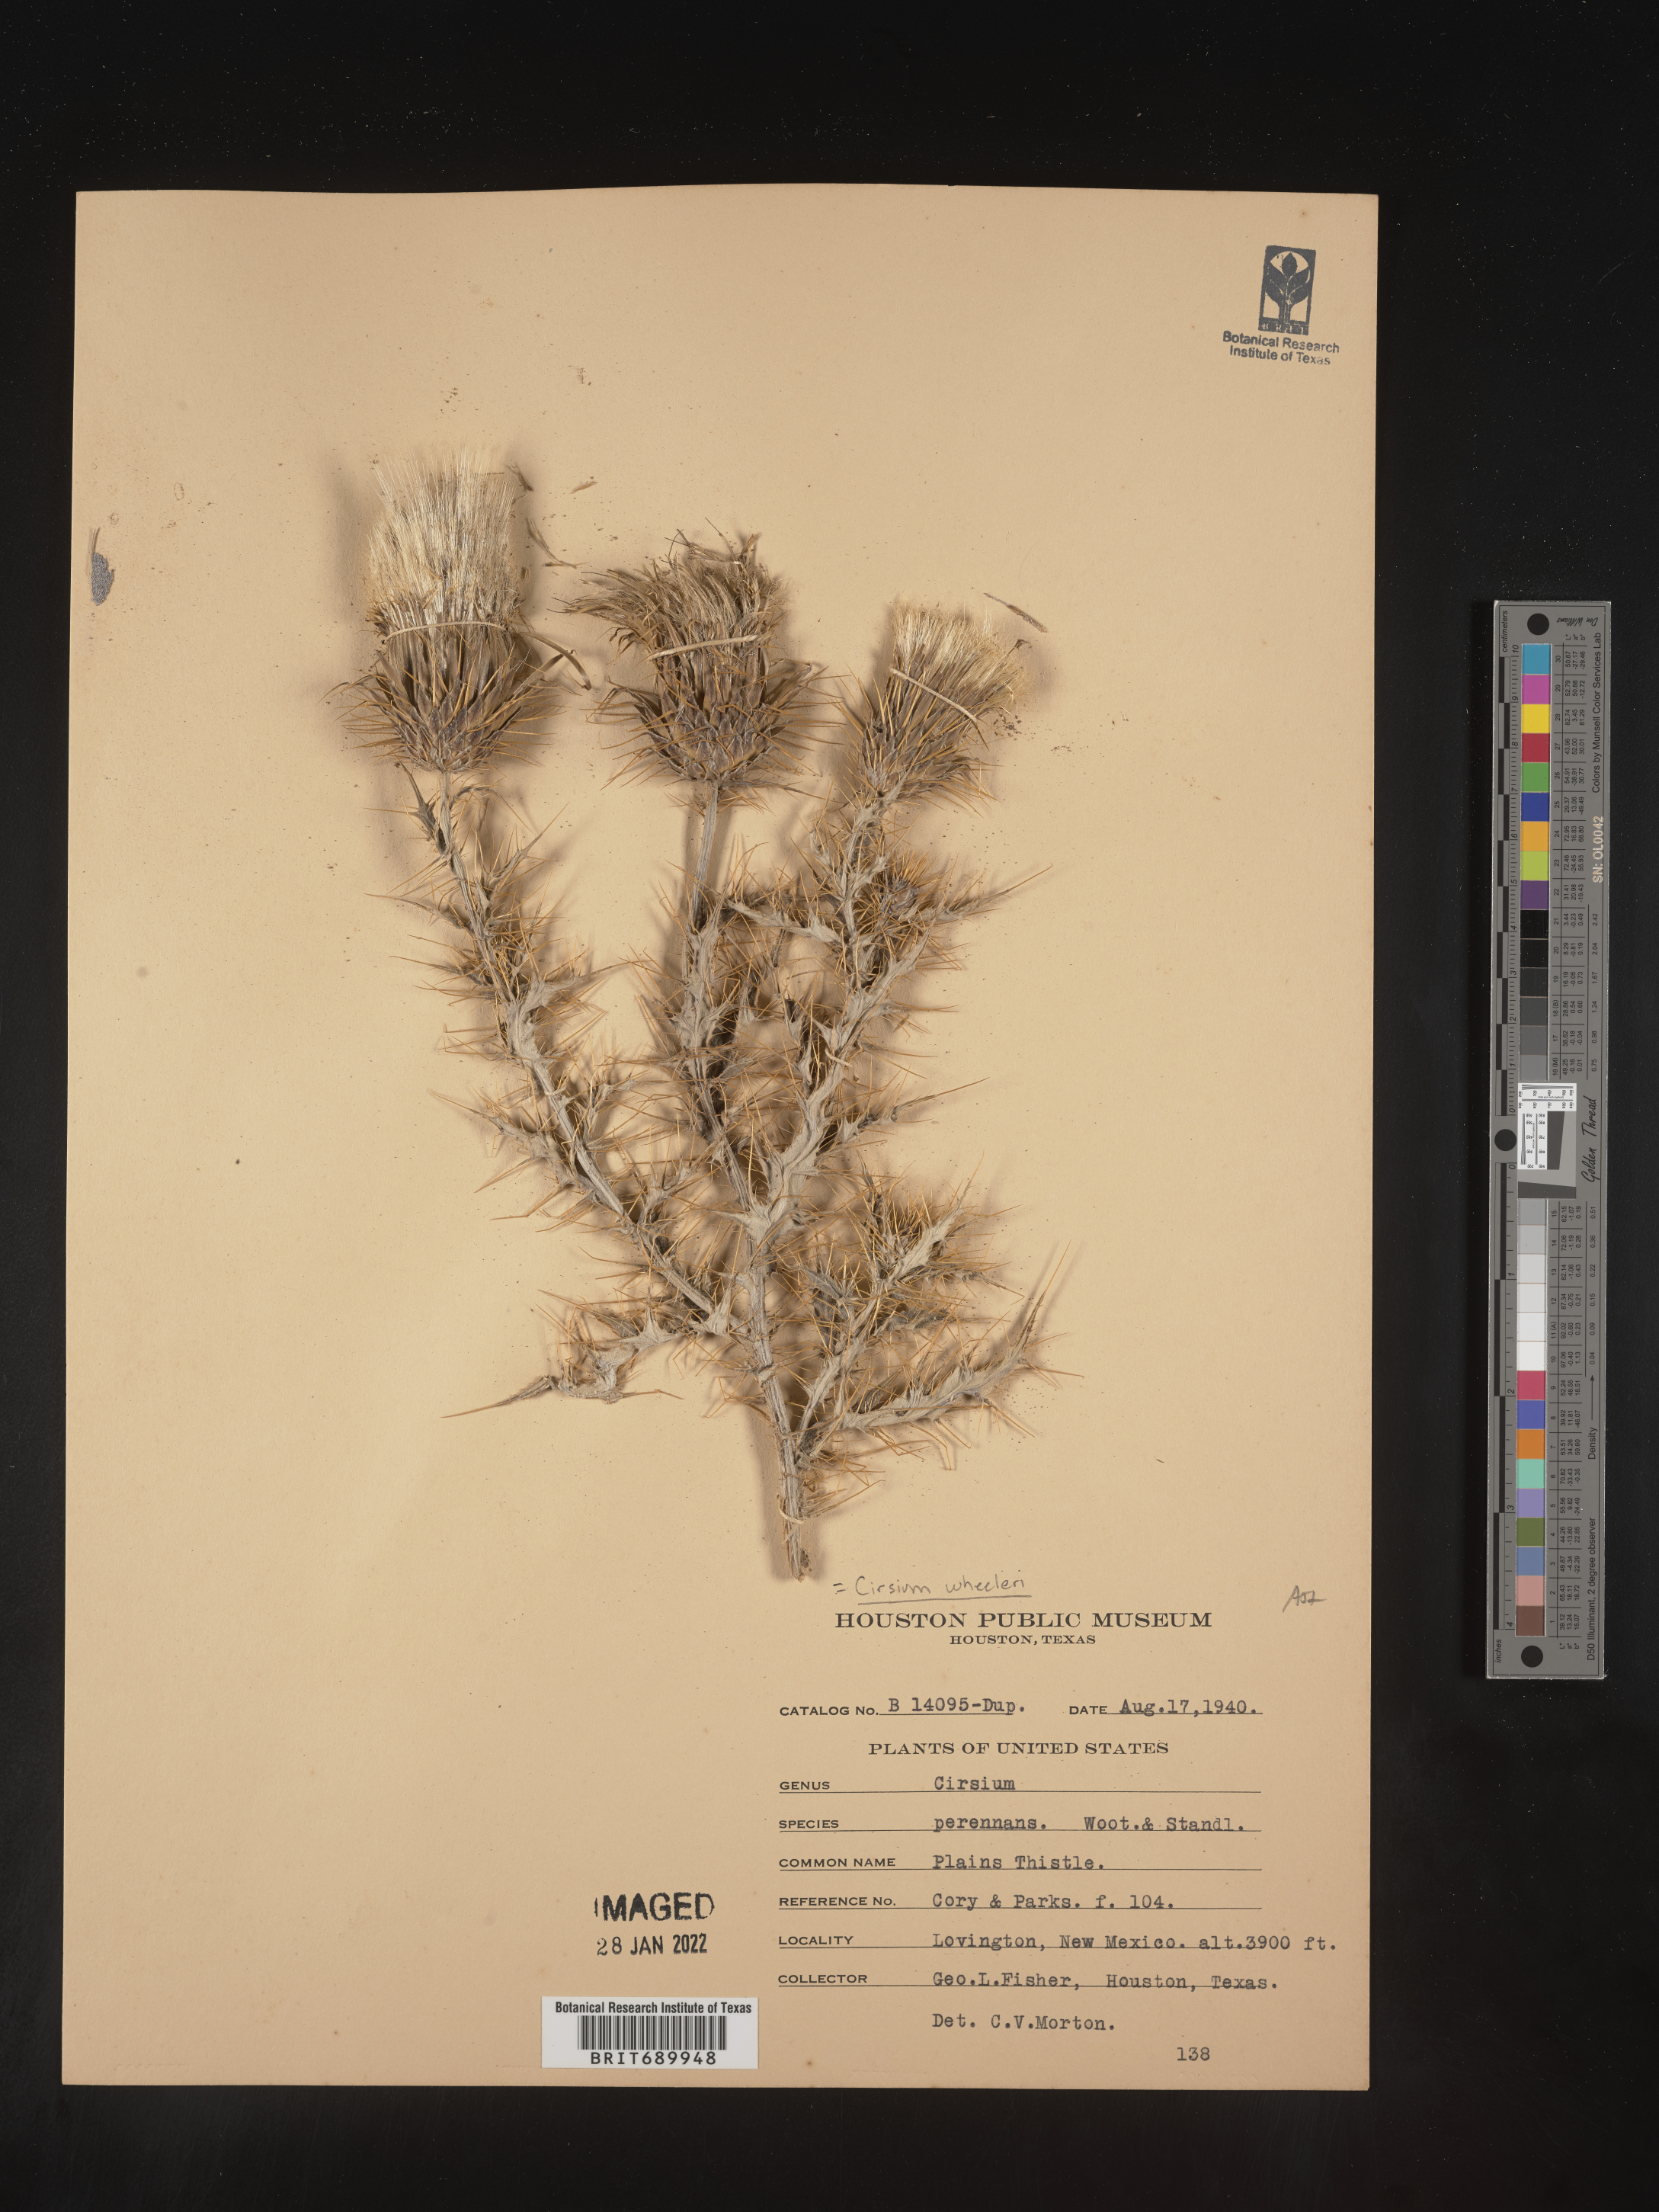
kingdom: Plantae
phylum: Tracheophyta
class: Magnoliopsida
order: Asterales
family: Asteraceae
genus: Cirsium
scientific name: Cirsium wheeleri
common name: Wheeler's thistle
